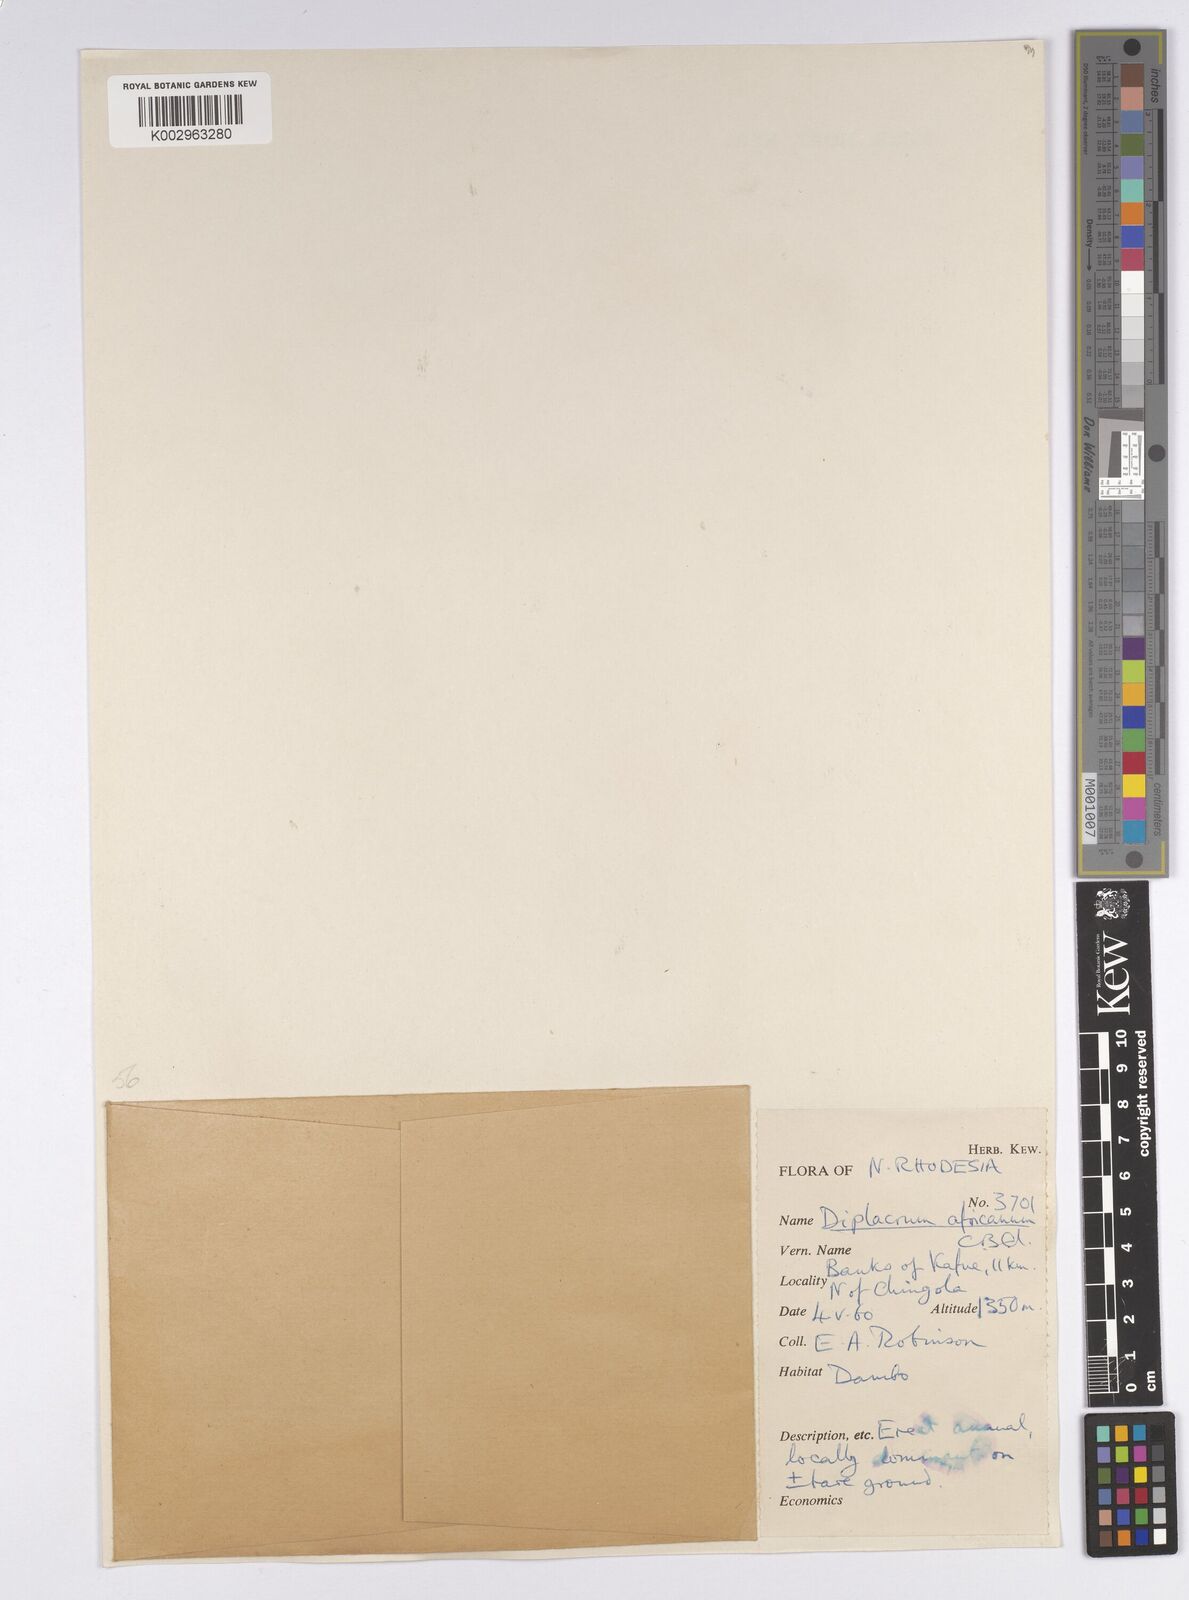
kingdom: Plantae
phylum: Tracheophyta
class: Liliopsida
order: Poales
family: Cyperaceae
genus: Diplacrum
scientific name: Diplacrum africanum
